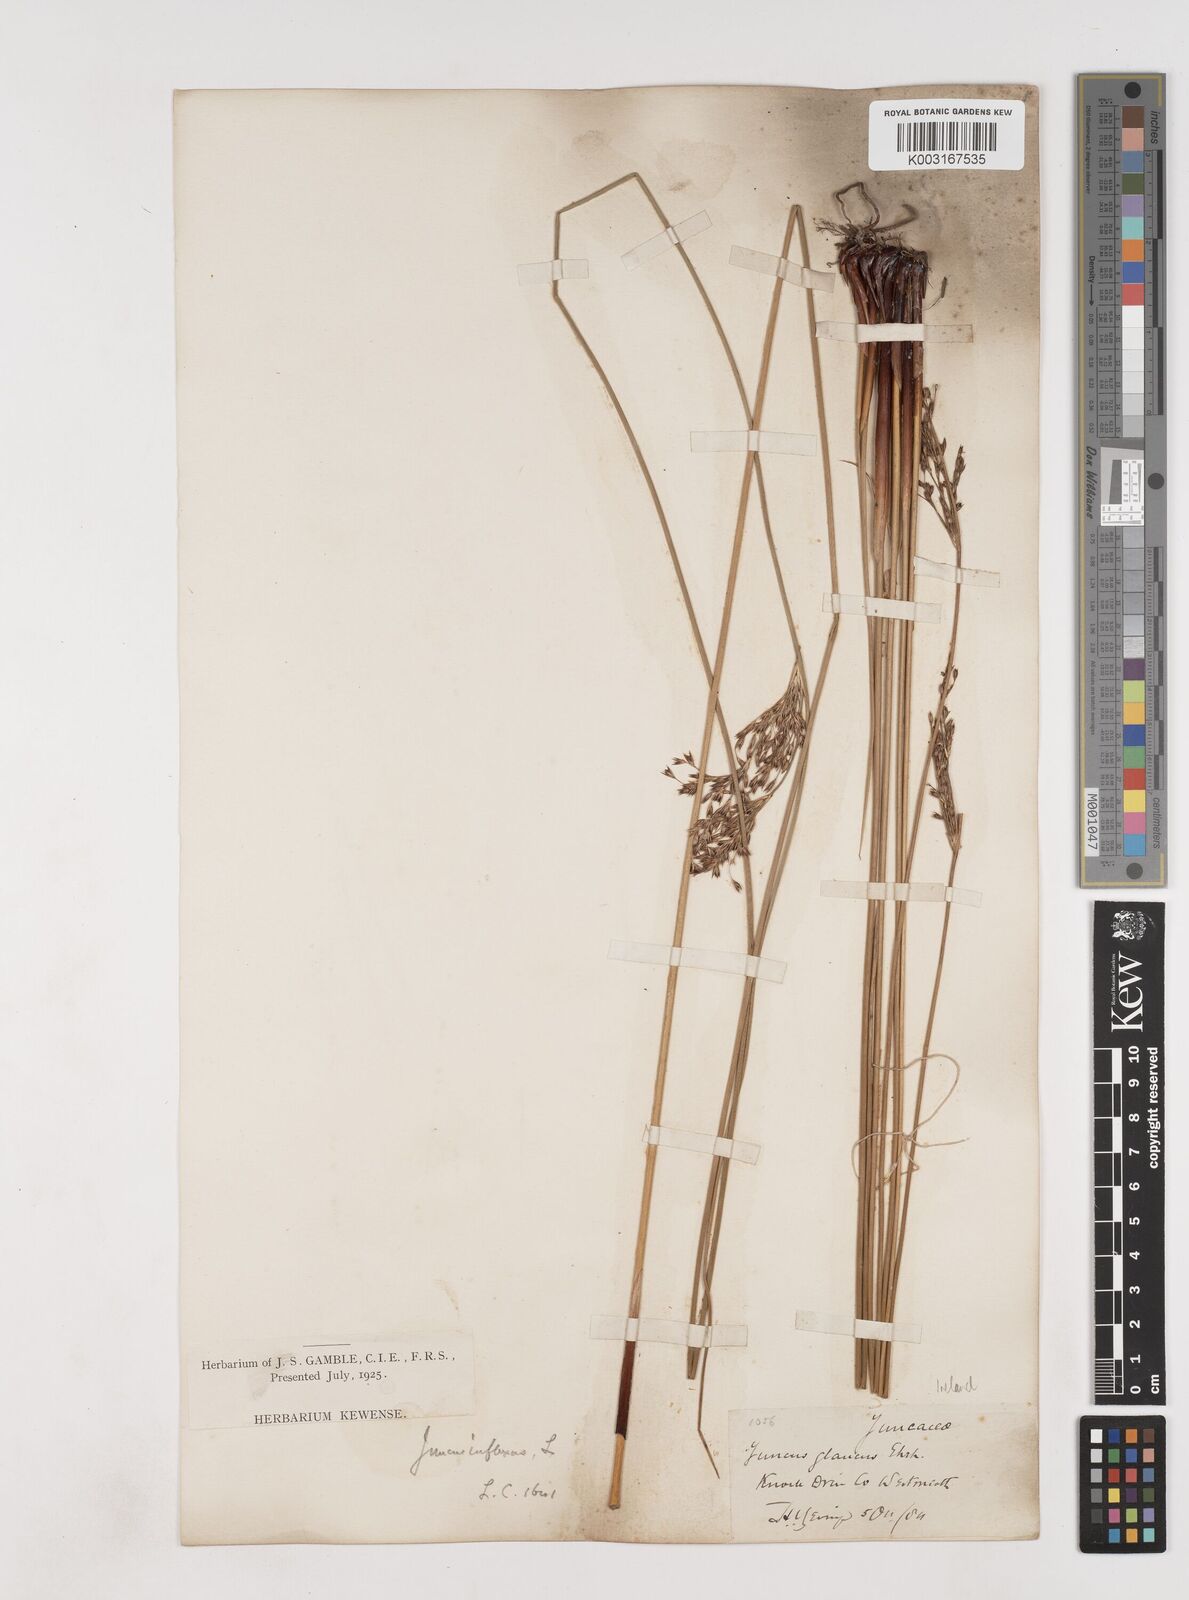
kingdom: Plantae
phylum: Tracheophyta
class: Liliopsida
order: Poales
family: Juncaceae
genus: Juncus
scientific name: Juncus inflexus
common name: Hard rush
